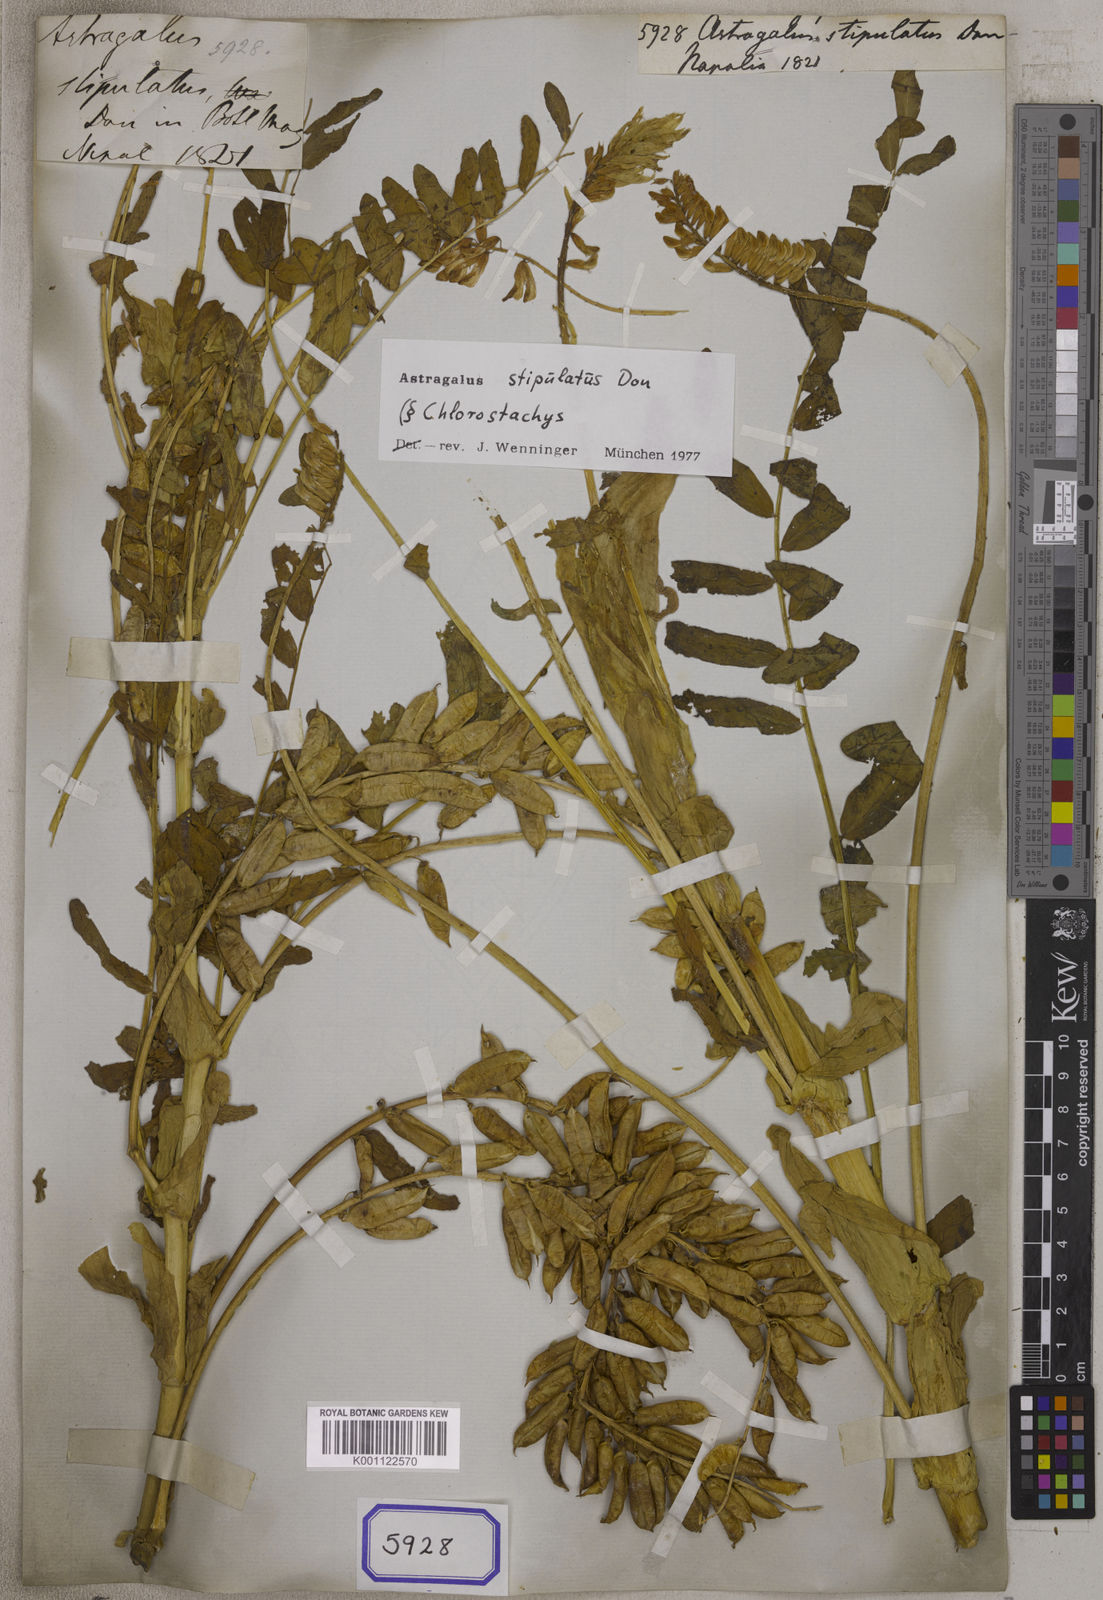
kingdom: Plantae
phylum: Tracheophyta
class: Magnoliopsida
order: Fabales
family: Fabaceae
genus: Astragalus
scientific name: Astragalus
